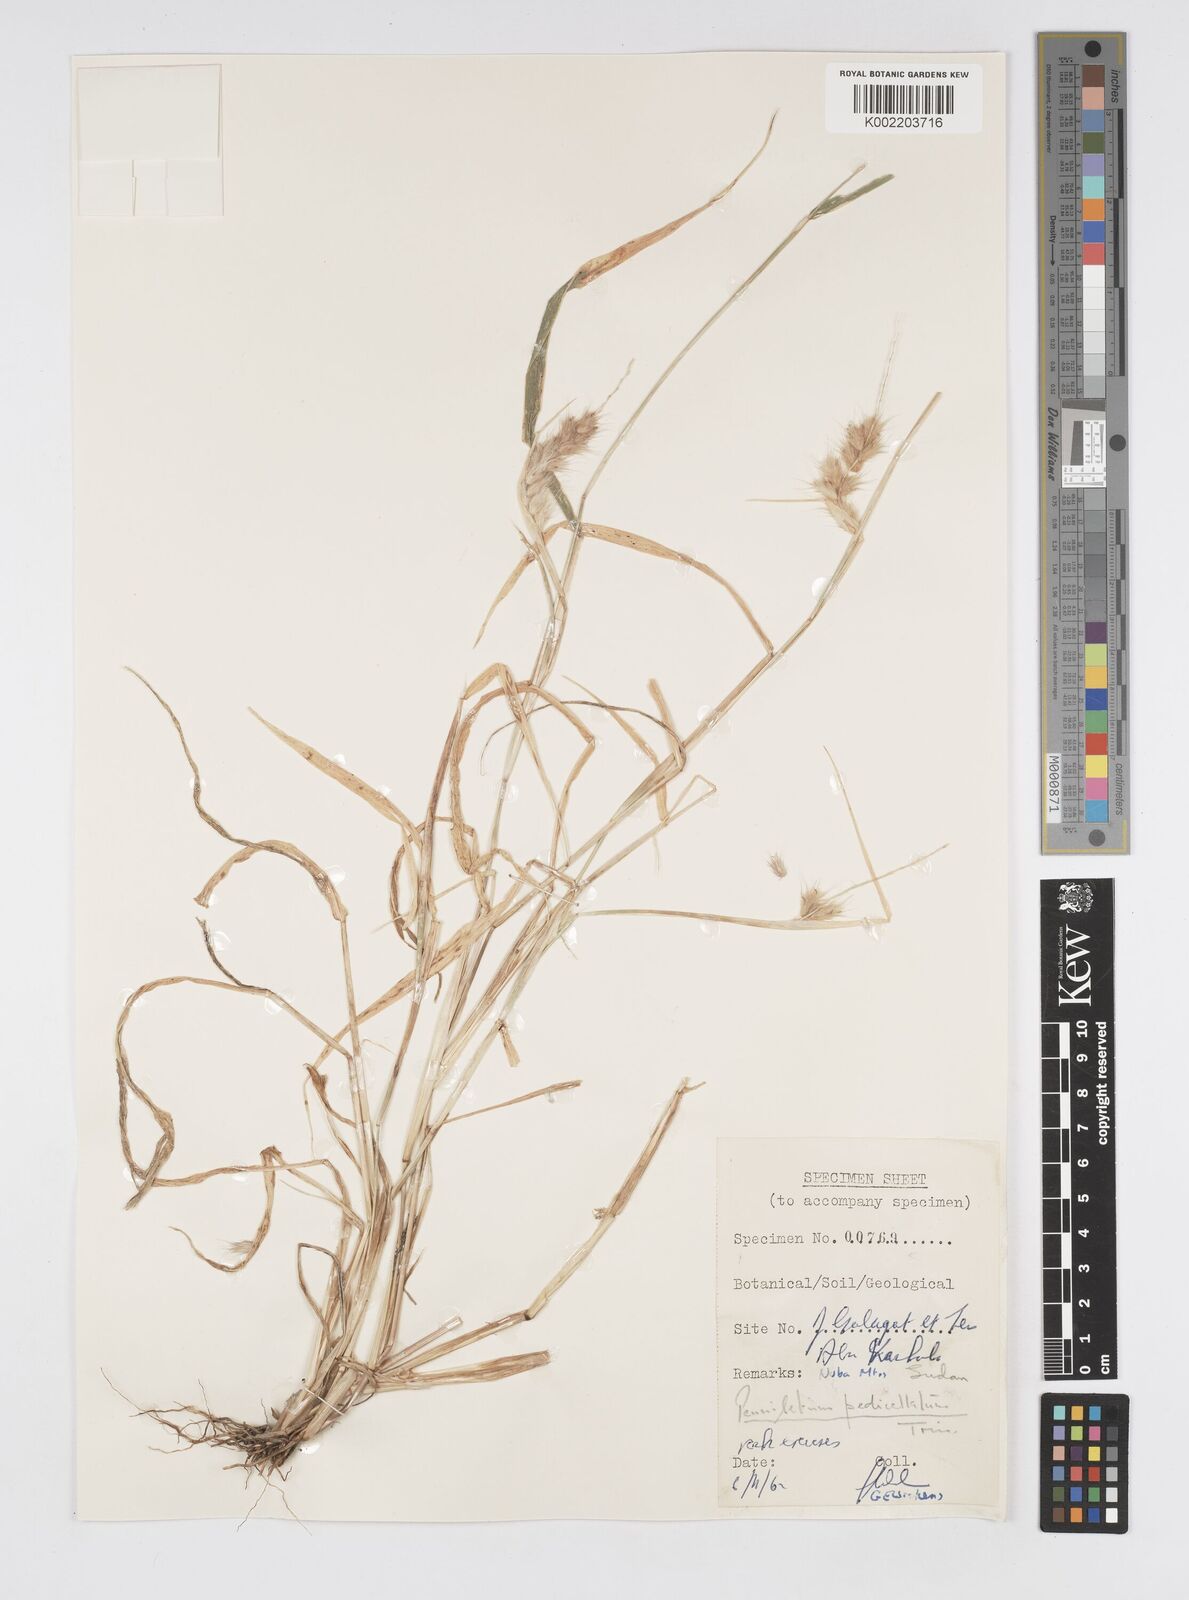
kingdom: Plantae
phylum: Tracheophyta
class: Liliopsida
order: Poales
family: Poaceae
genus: Cenchrus
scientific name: Cenchrus pedicellatus
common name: Hairy fountain grass
